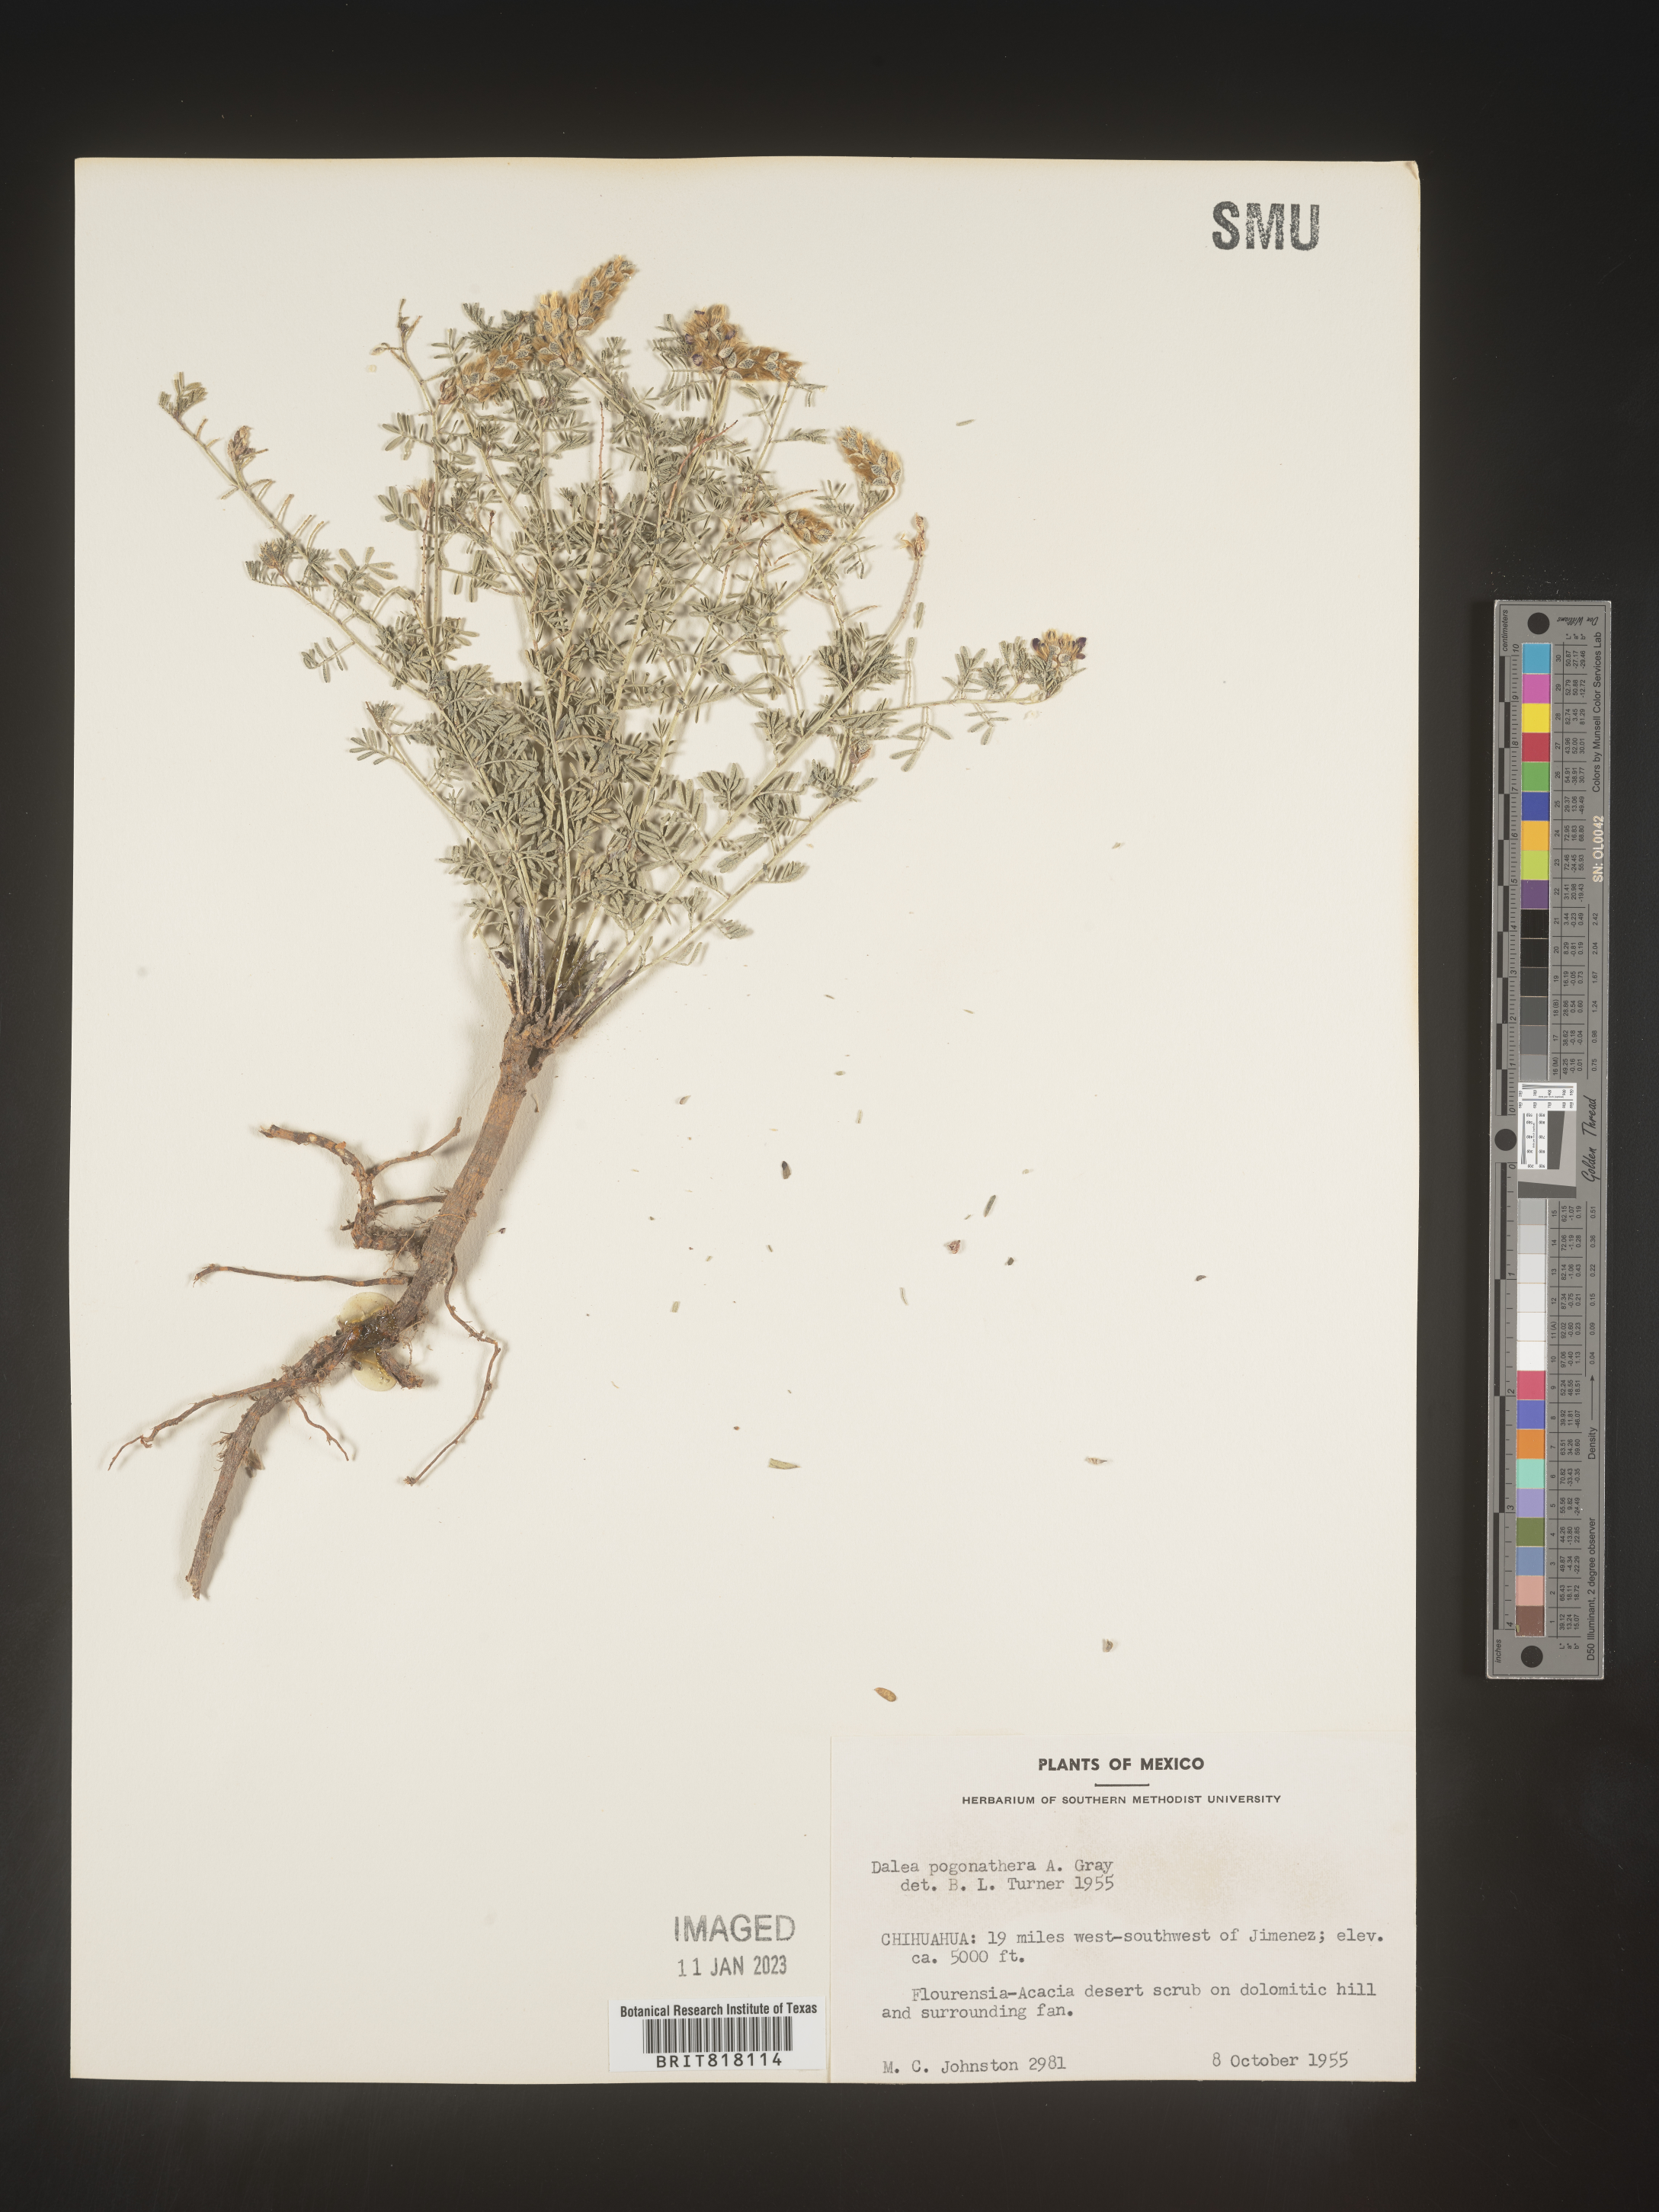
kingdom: Plantae
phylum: Tracheophyta
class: Magnoliopsida
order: Fabales
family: Fabaceae
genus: Dalea
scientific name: Dalea
